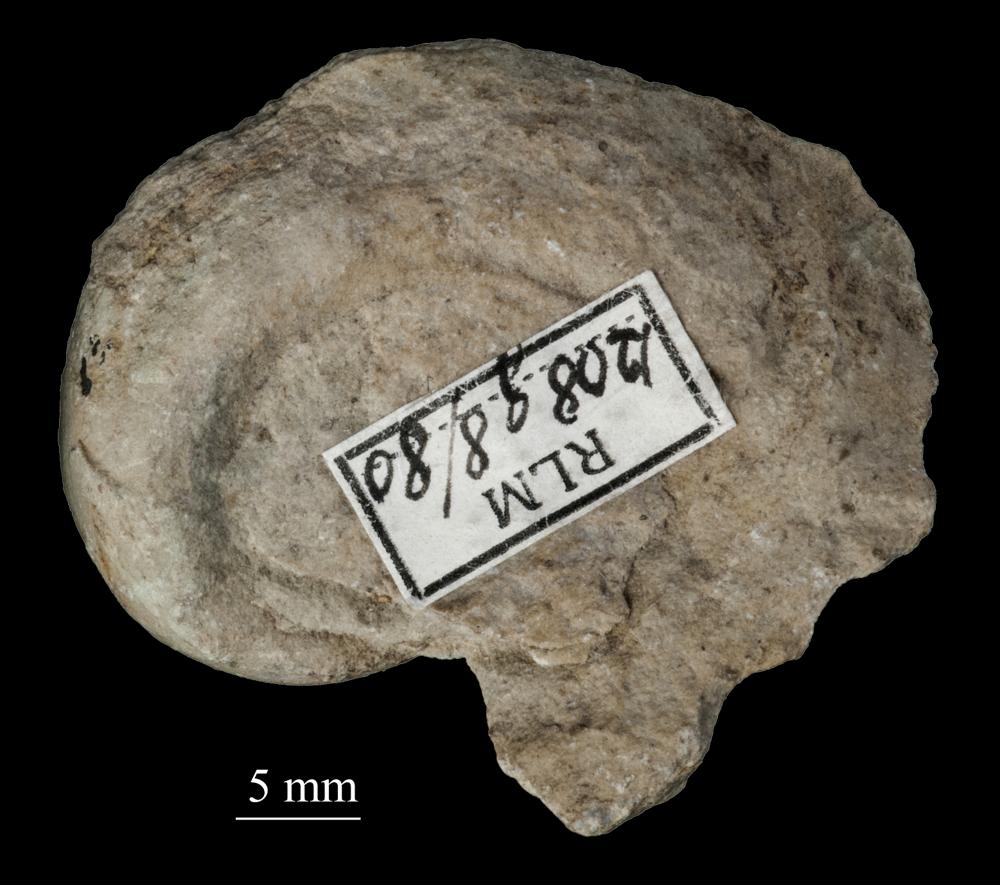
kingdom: Animalia
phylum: Mollusca
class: Gastropoda
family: Bellerophontidae
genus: Bellerophon
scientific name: Bellerophon contortus
